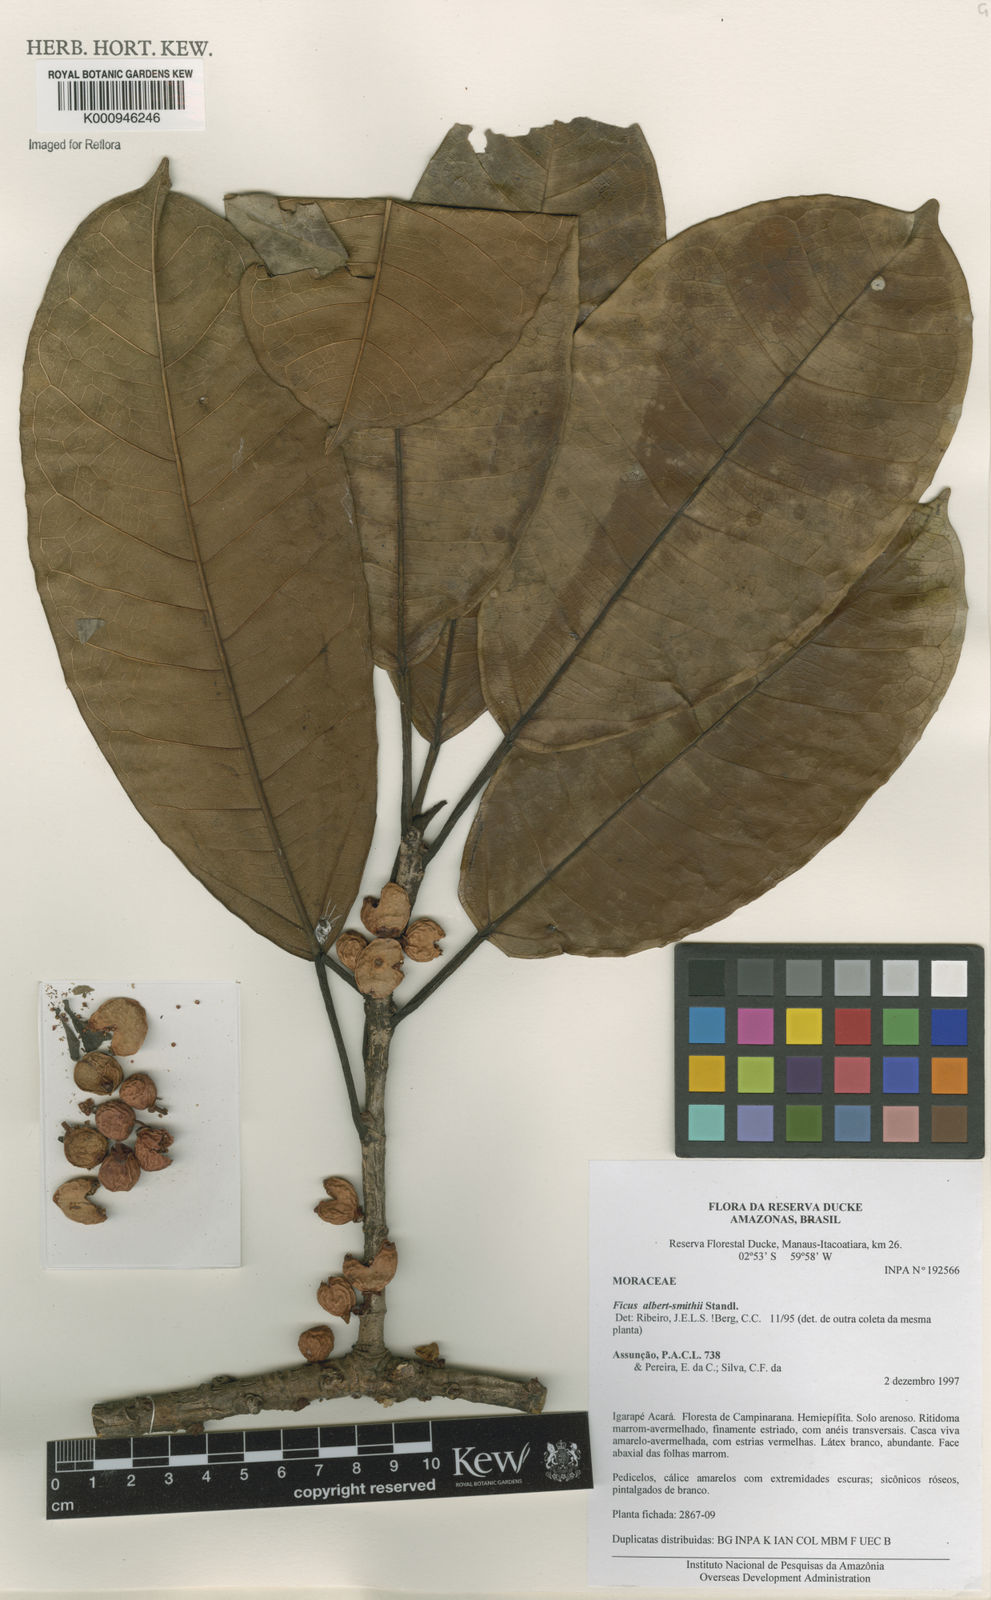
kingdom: Plantae
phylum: Tracheophyta
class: Magnoliopsida
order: Rosales
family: Moraceae
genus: Ficus
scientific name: Ficus albert-smithii
